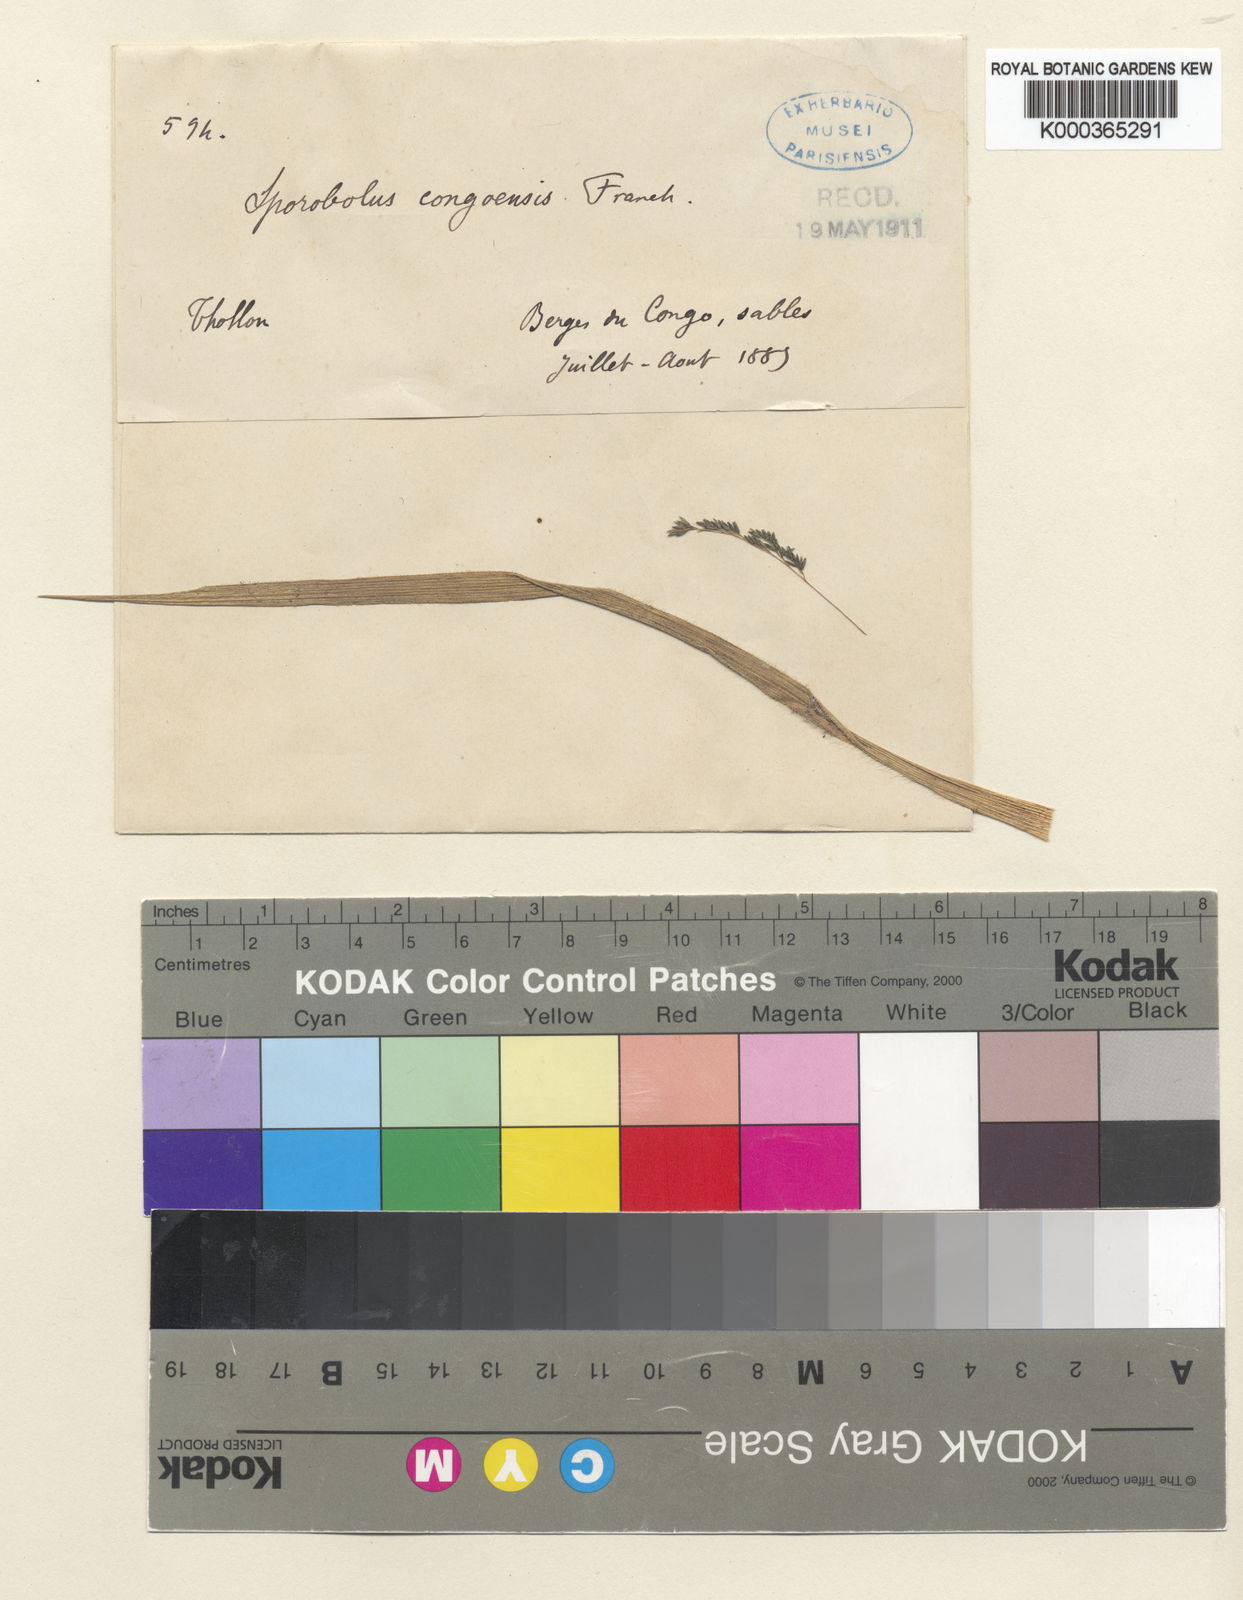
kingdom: Plantae
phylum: Tracheophyta
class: Liliopsida
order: Poales
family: Poaceae
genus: Sporobolus
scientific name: Sporobolus congoensis
